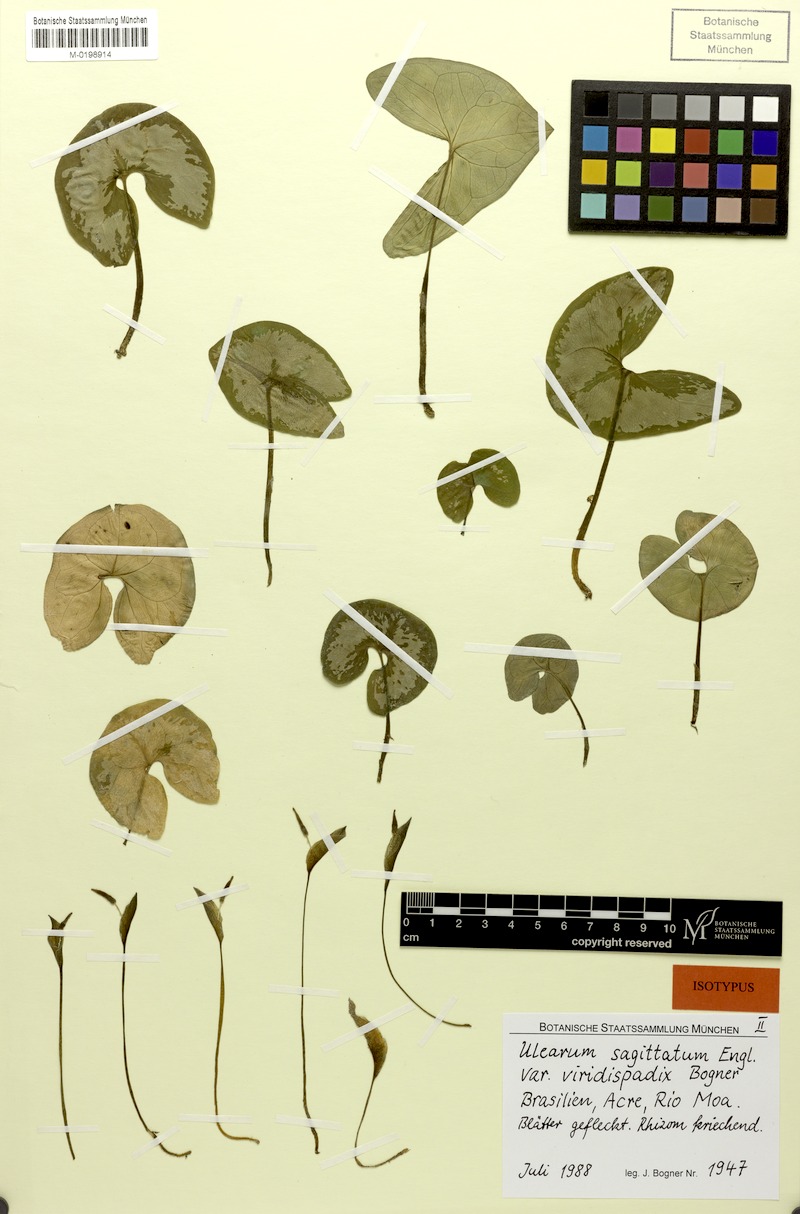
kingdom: Plantae
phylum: Tracheophyta
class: Liliopsida
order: Alismatales
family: Araceae
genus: Ulearum
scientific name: Ulearum sagittatum
